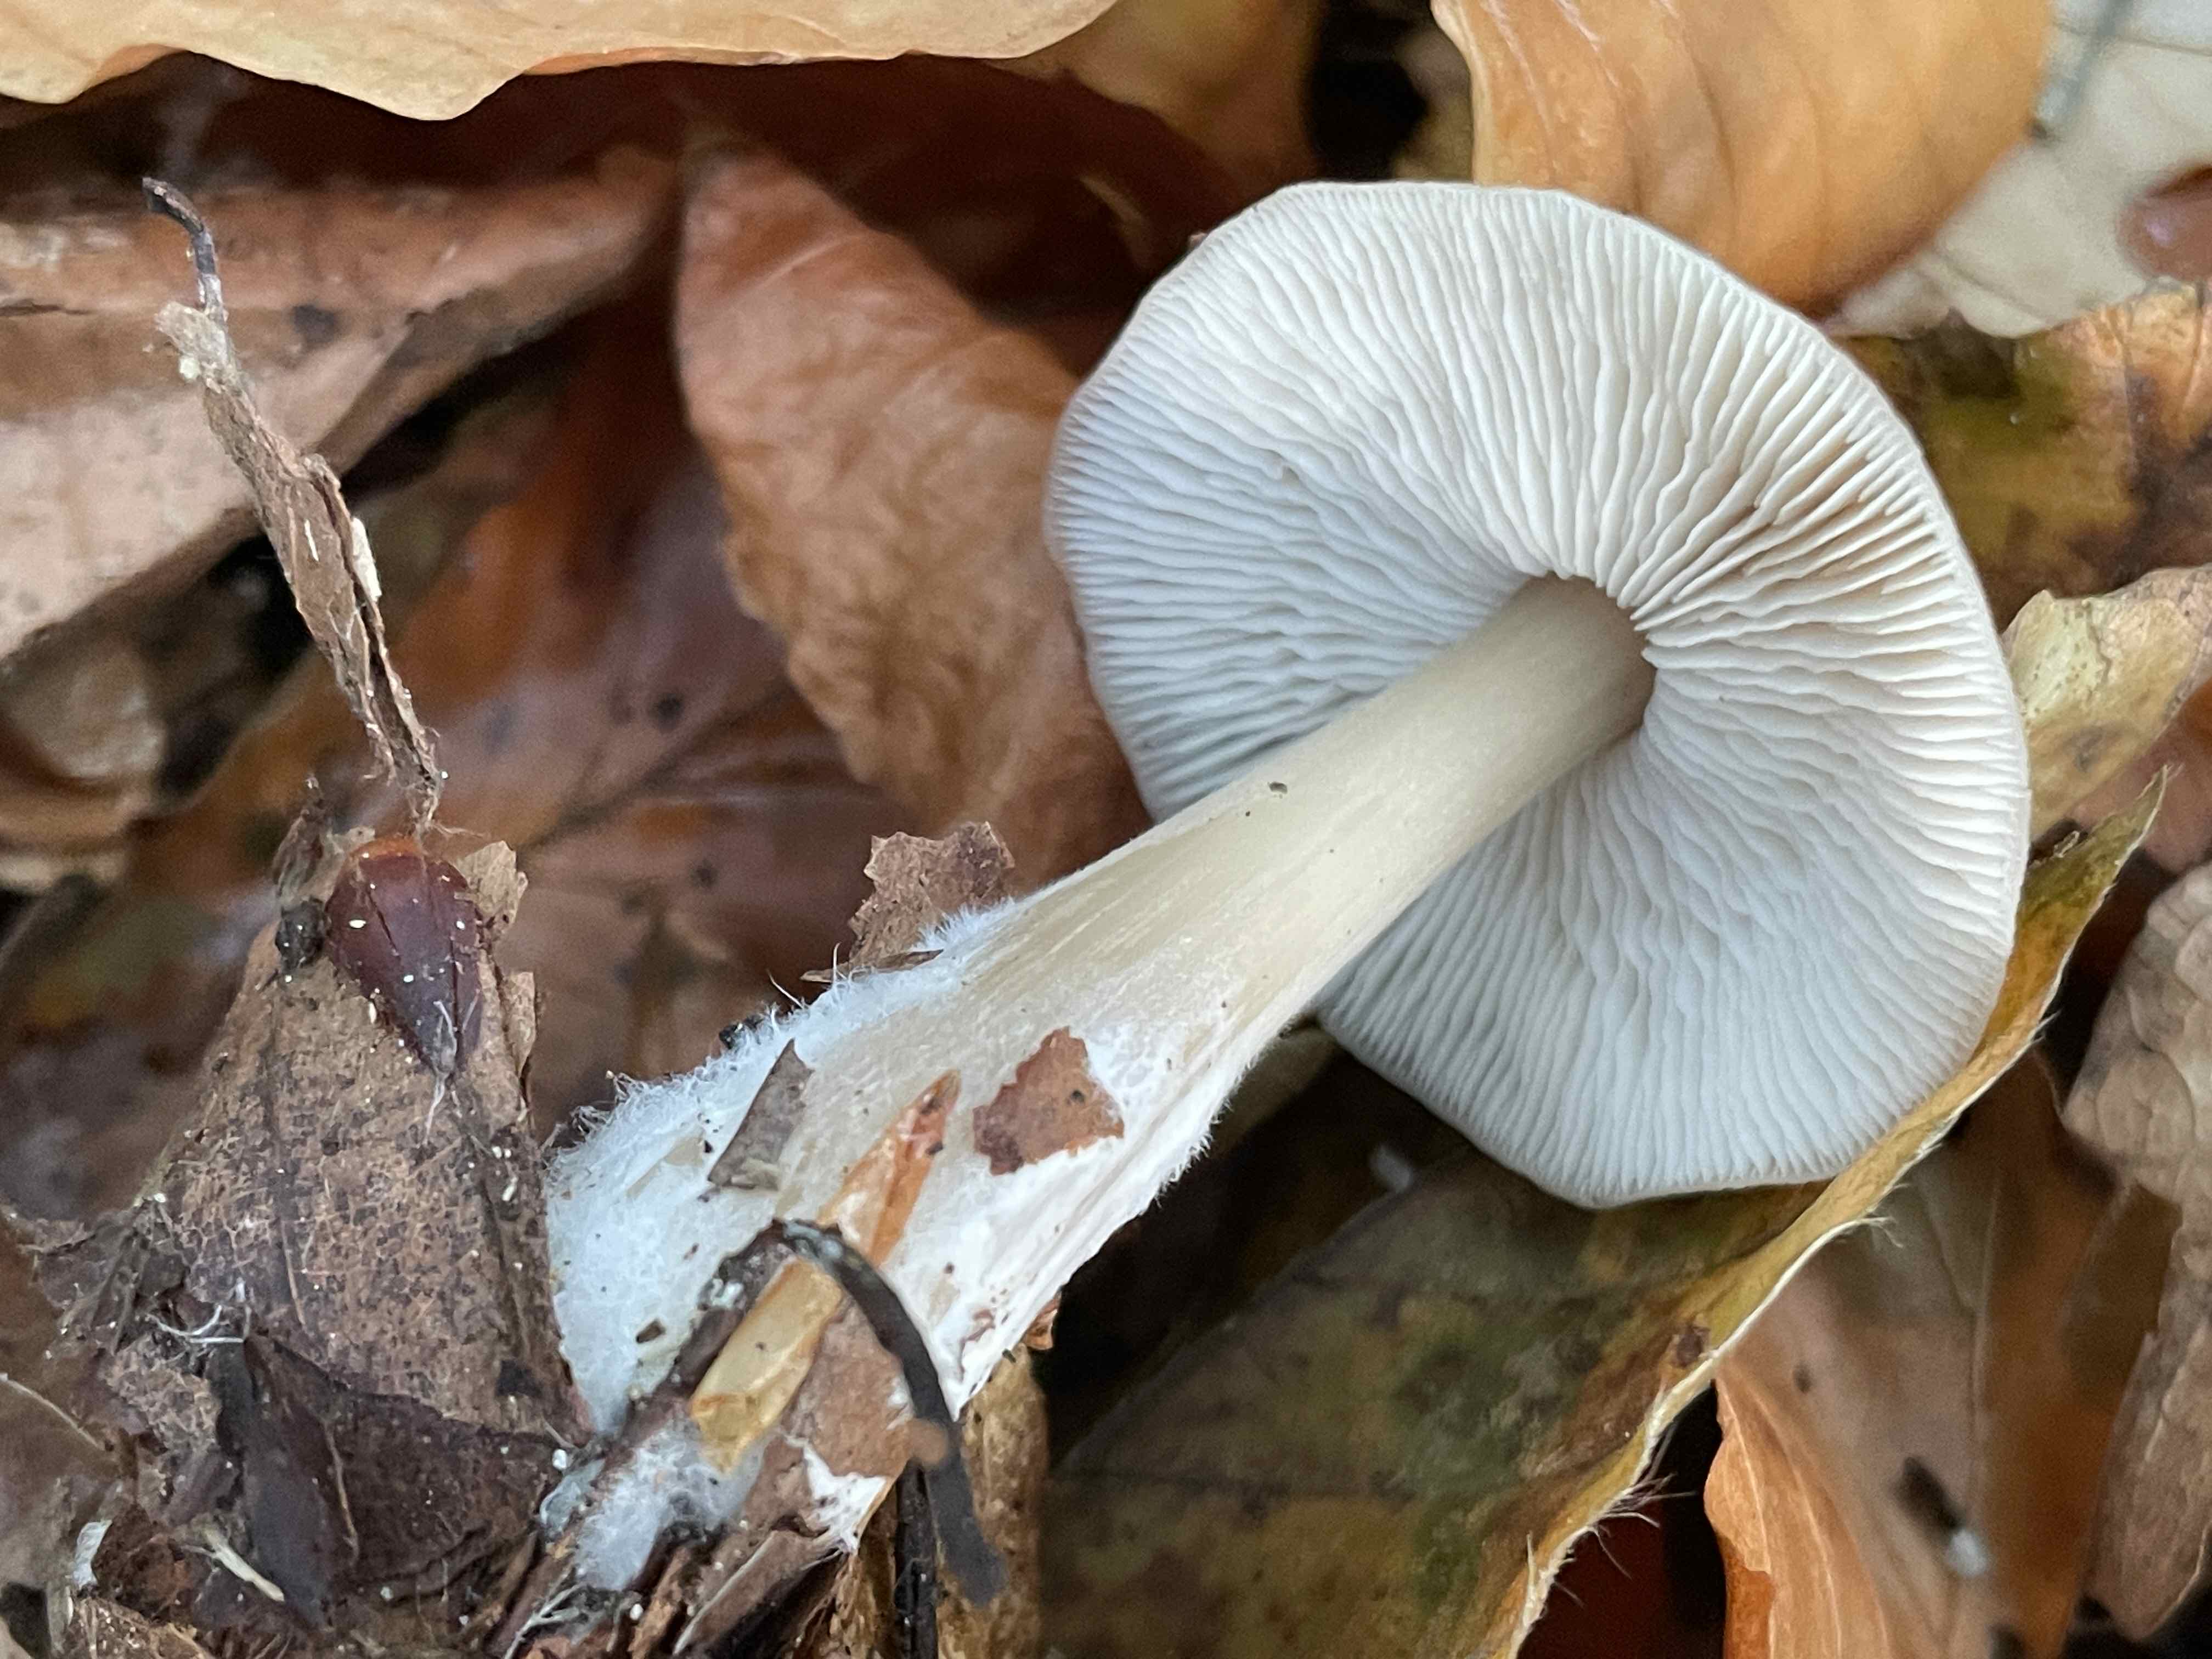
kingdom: Fungi
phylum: Basidiomycota
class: Agaricomycetes
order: Agaricales
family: Omphalotaceae
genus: Rhodocollybia
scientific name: Rhodocollybia asema
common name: horngrå fladhat
